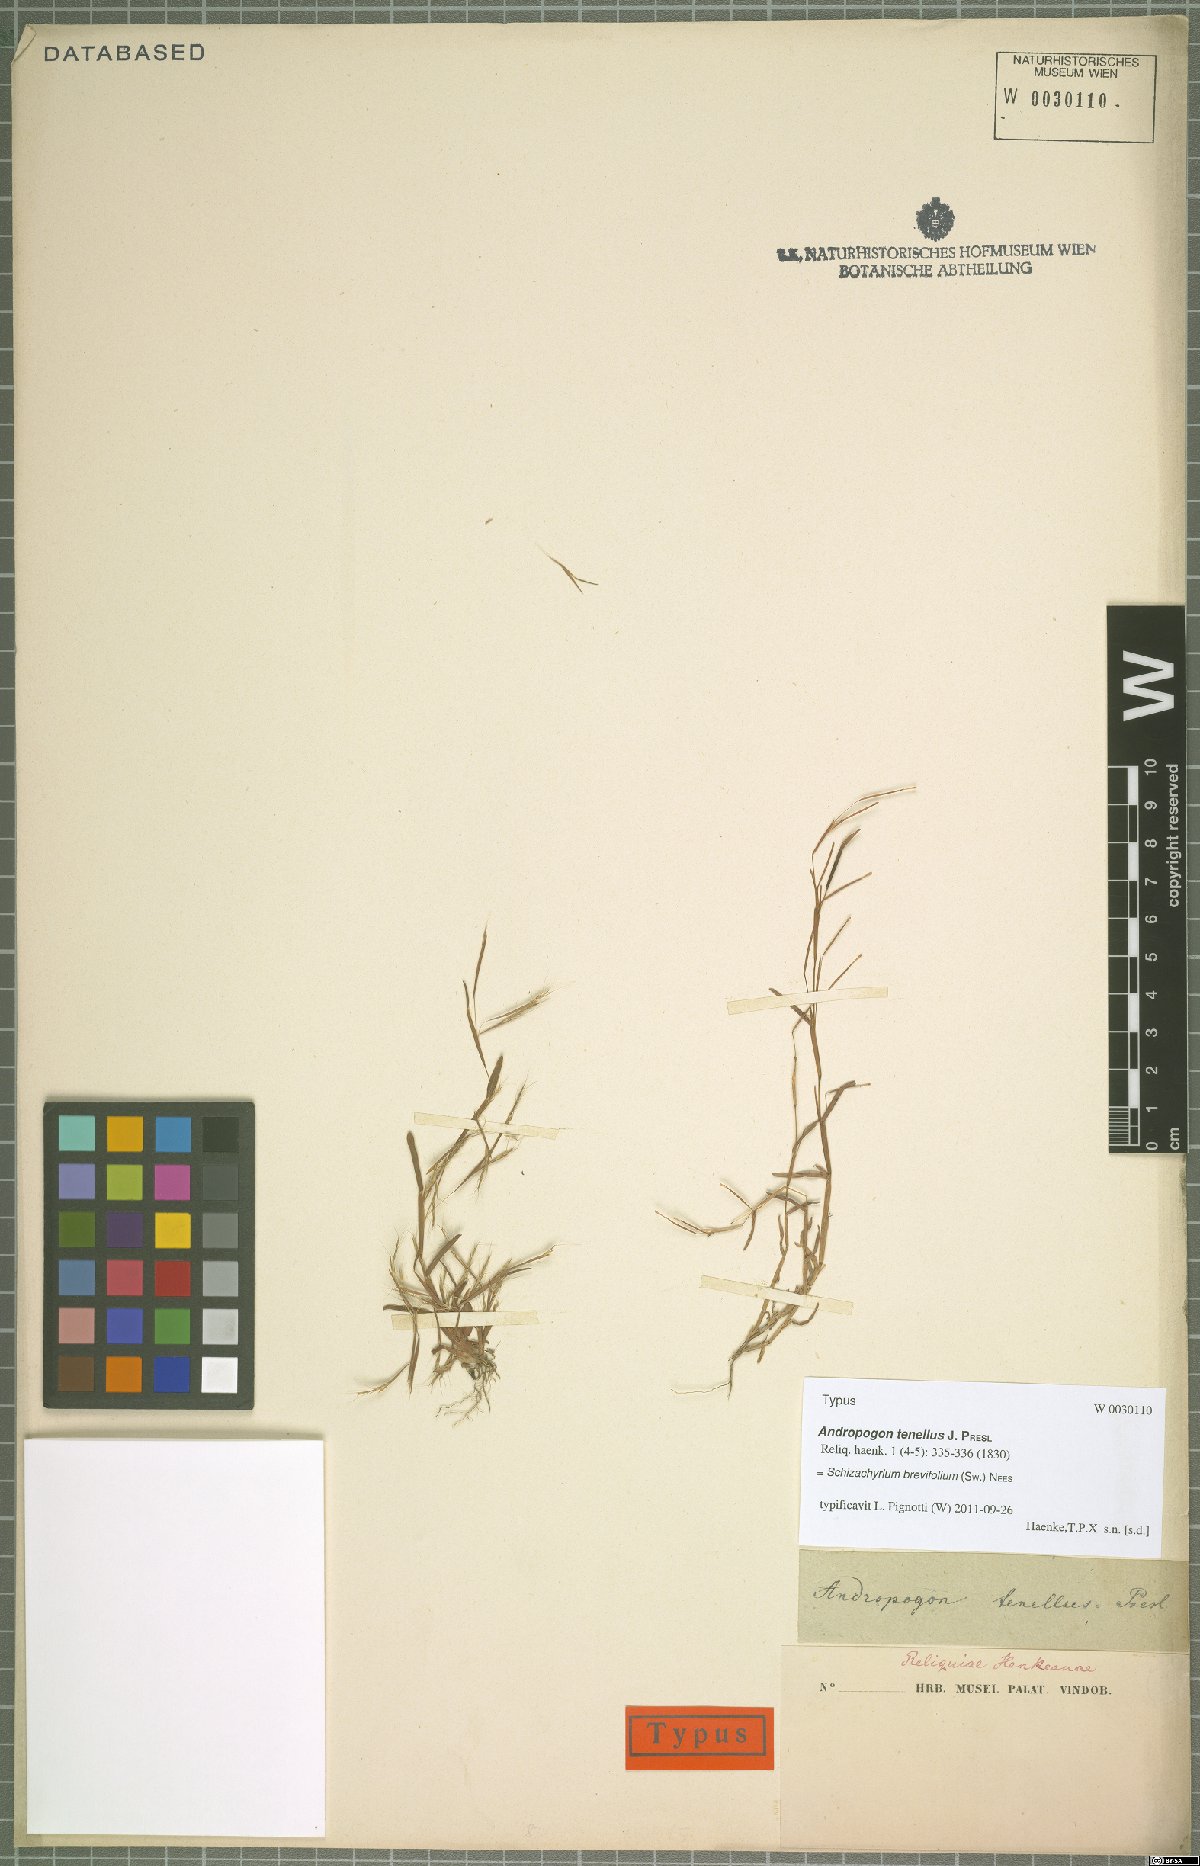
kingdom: Plantae
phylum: Tracheophyta
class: Liliopsida
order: Poales
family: Poaceae
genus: Schizachyrium
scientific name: Schizachyrium brevifolium
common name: Serillo dulce
